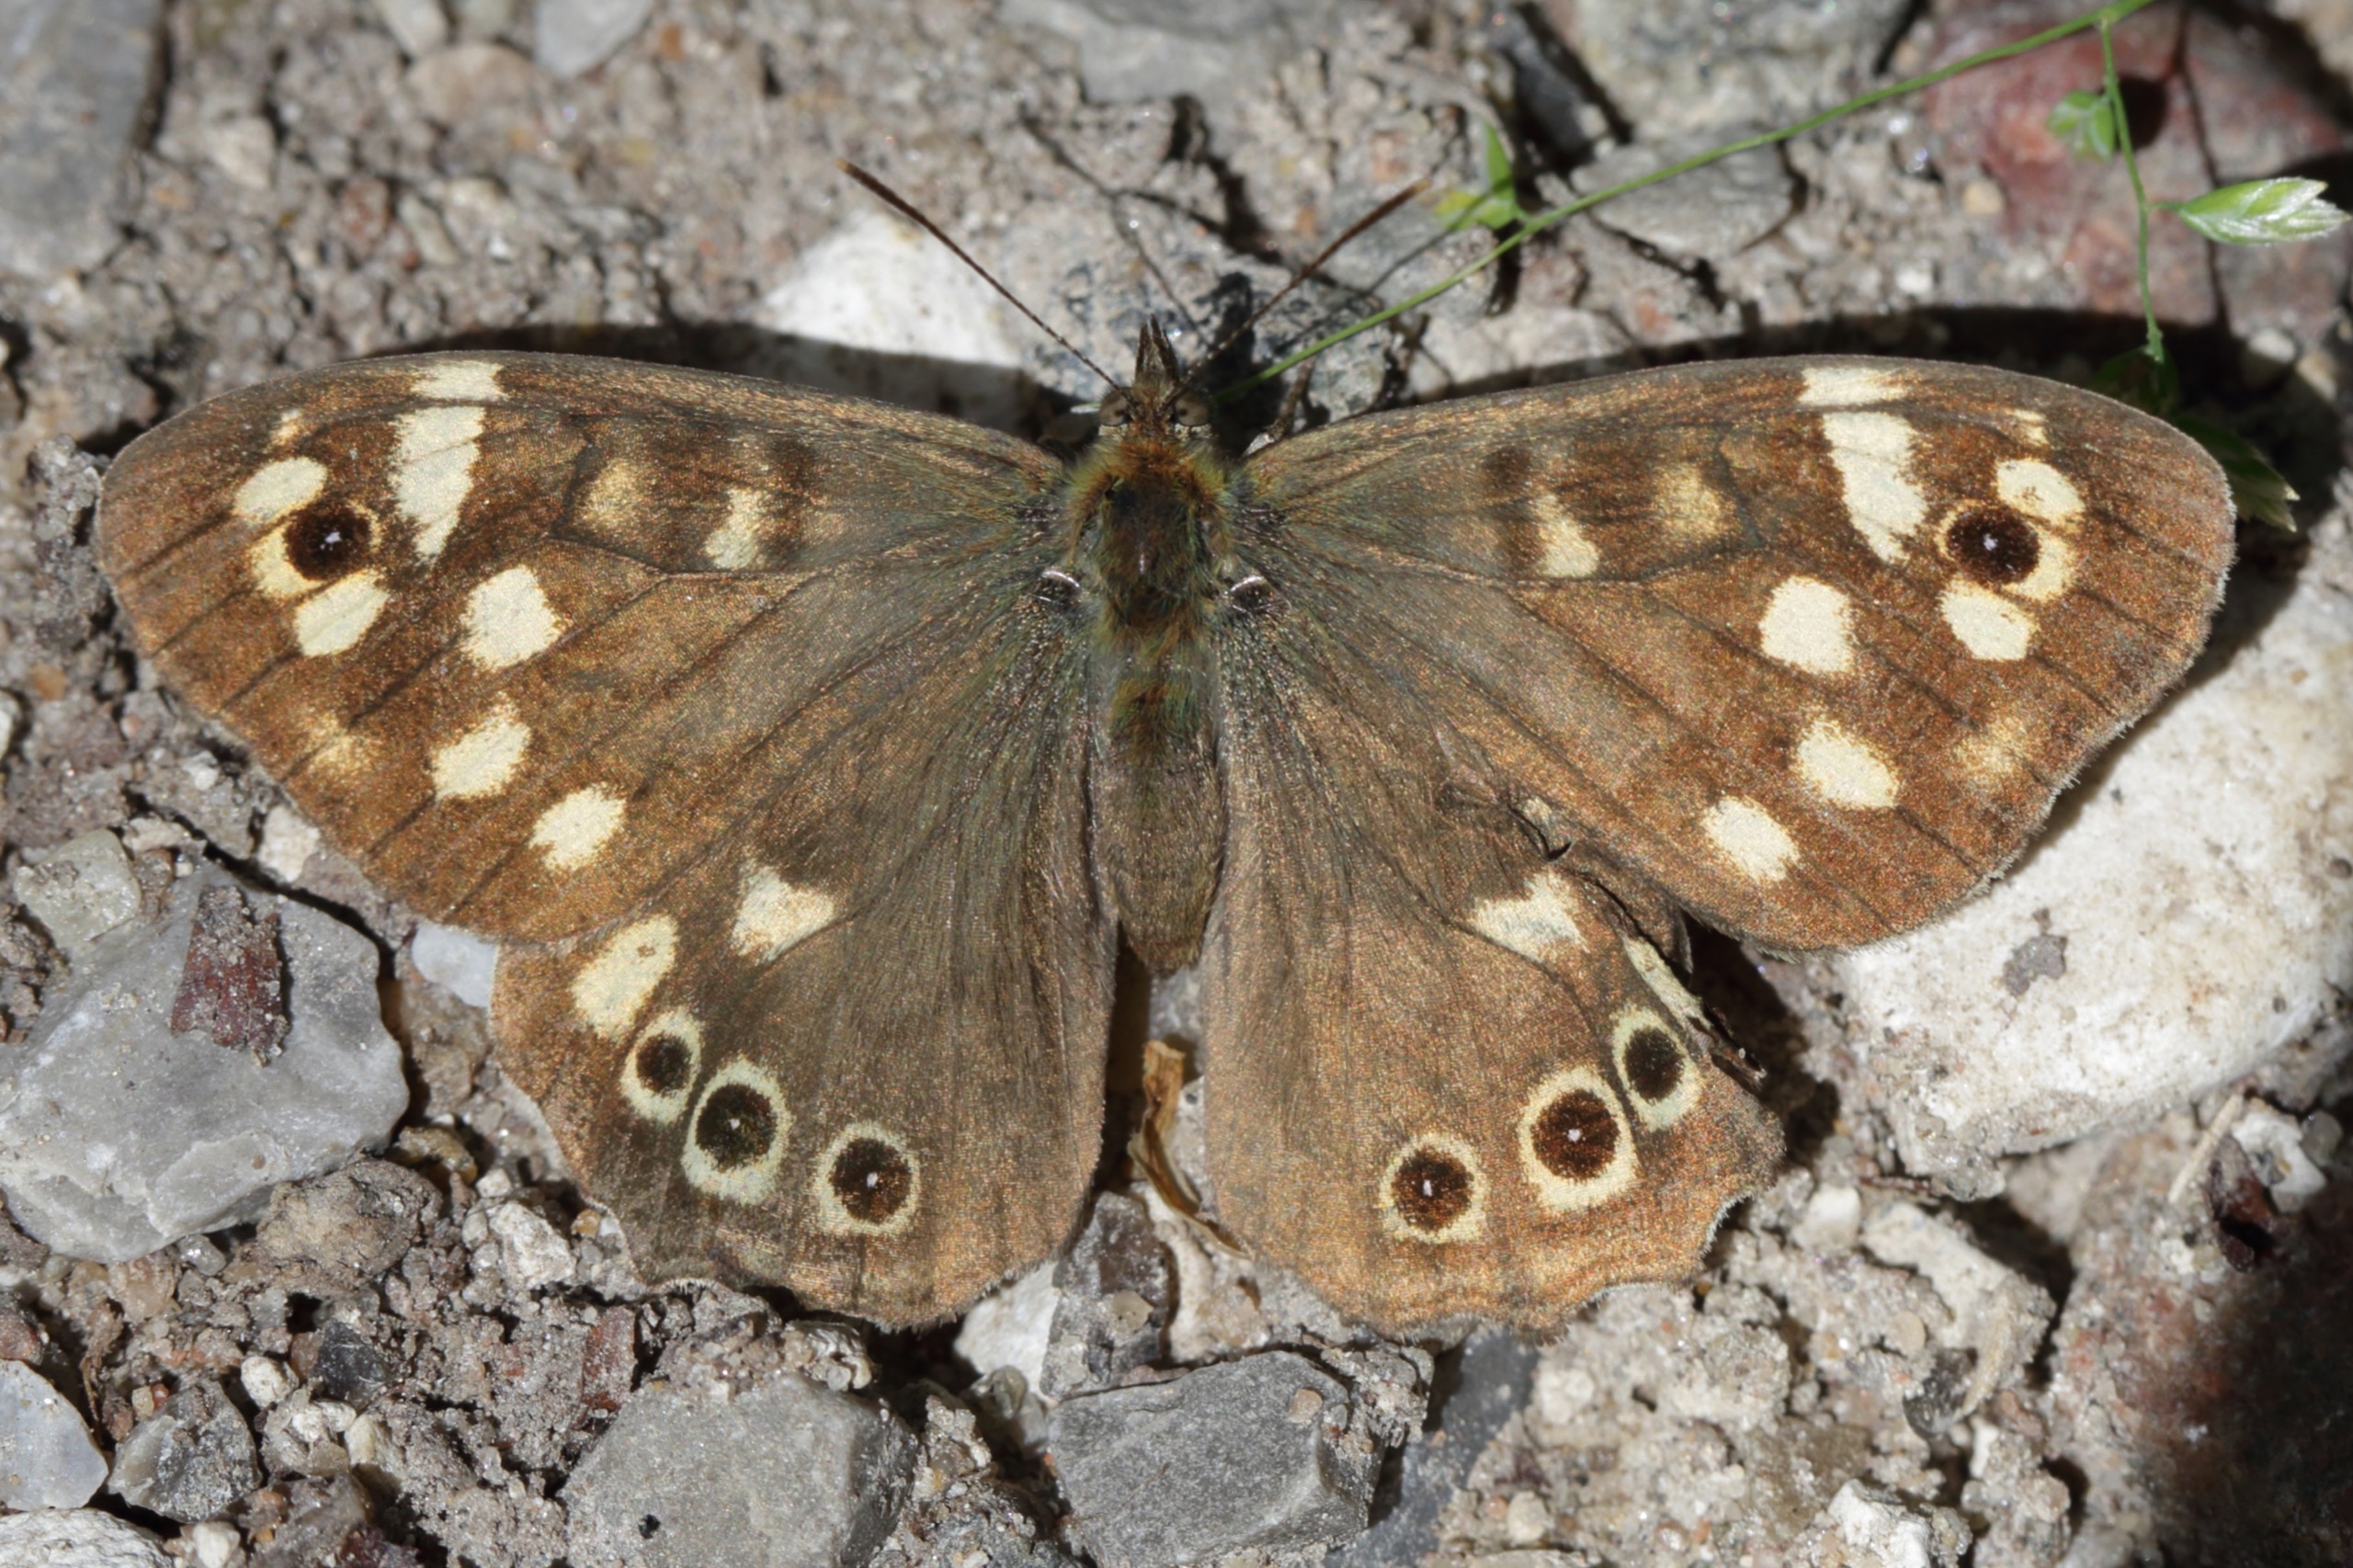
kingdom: Animalia
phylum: Arthropoda
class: Insecta
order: Lepidoptera
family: Nymphalidae
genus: Pararge
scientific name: Pararge aegeria
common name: Skovrandøje
